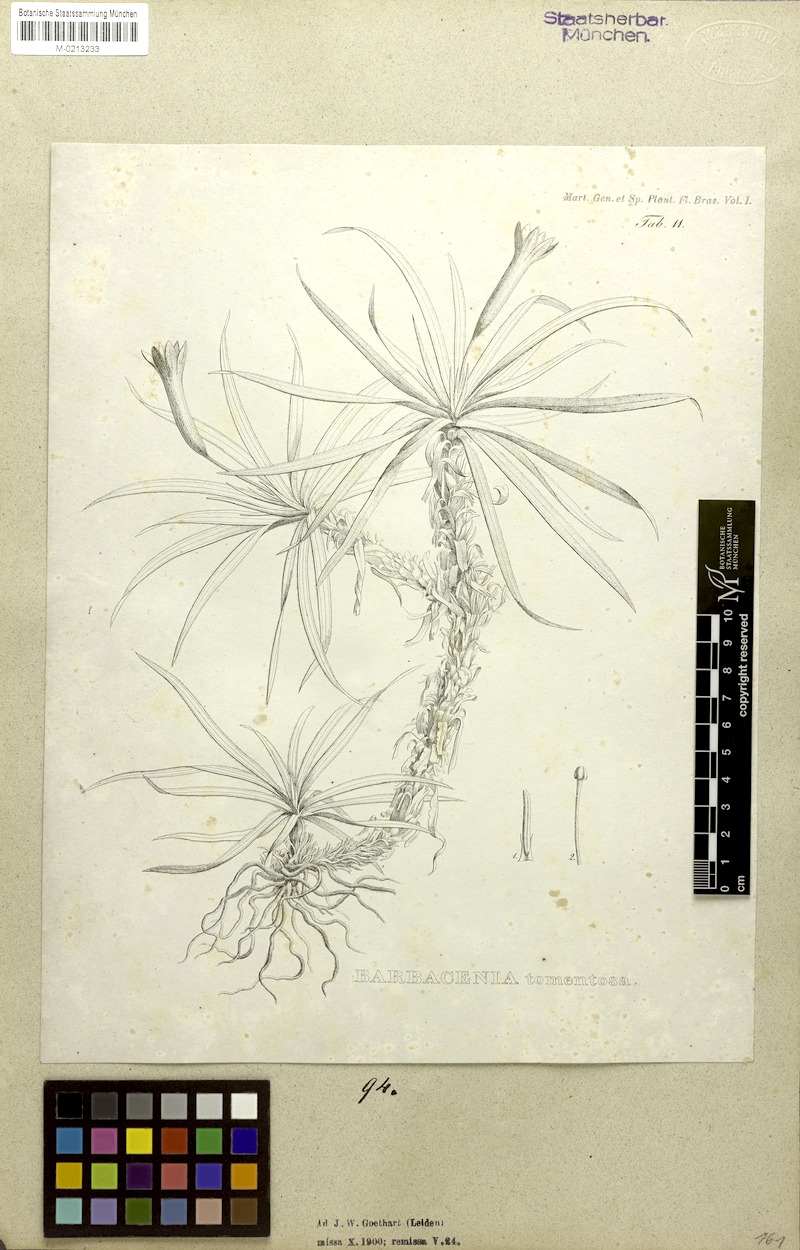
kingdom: Plantae
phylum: Tracheophyta
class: Liliopsida
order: Pandanales
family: Velloziaceae
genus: Barbacenia
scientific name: Barbacenia tomentosa
